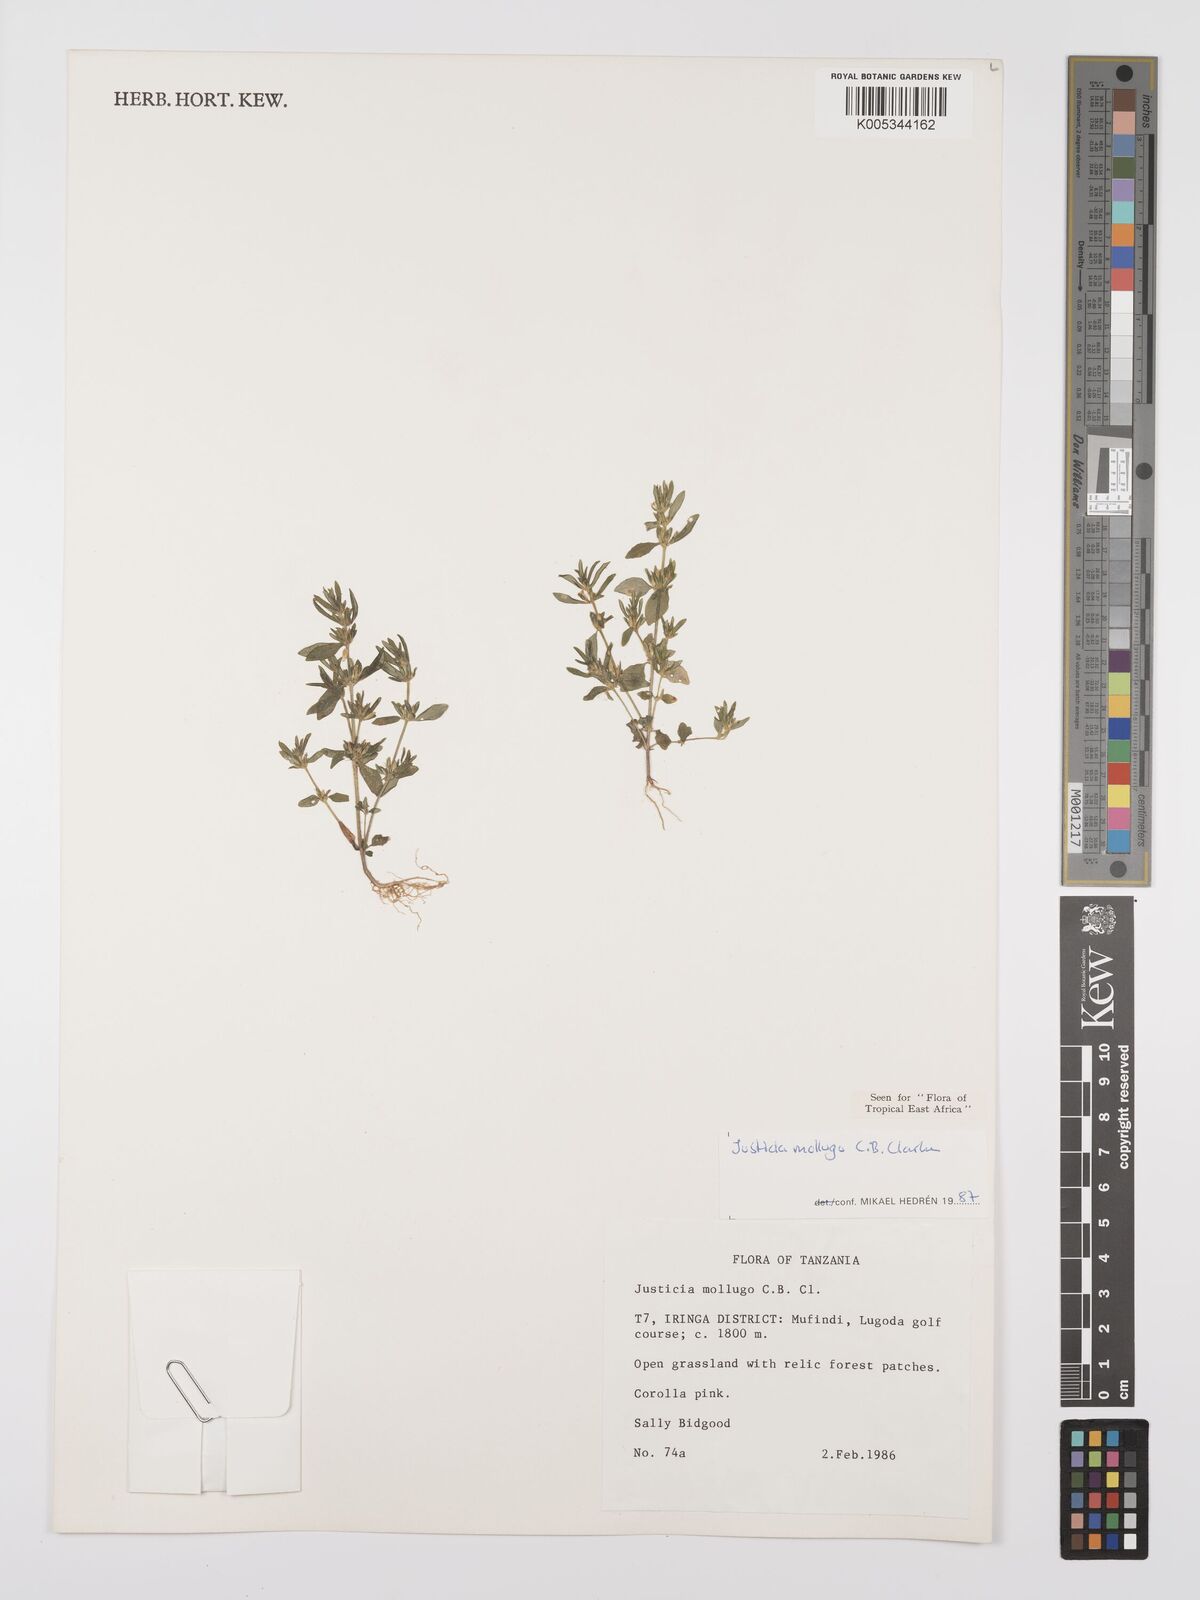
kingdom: Plantae
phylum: Tracheophyta
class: Magnoliopsida
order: Lamiales
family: Acanthaceae
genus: Justicia
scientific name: Justicia mollugo
